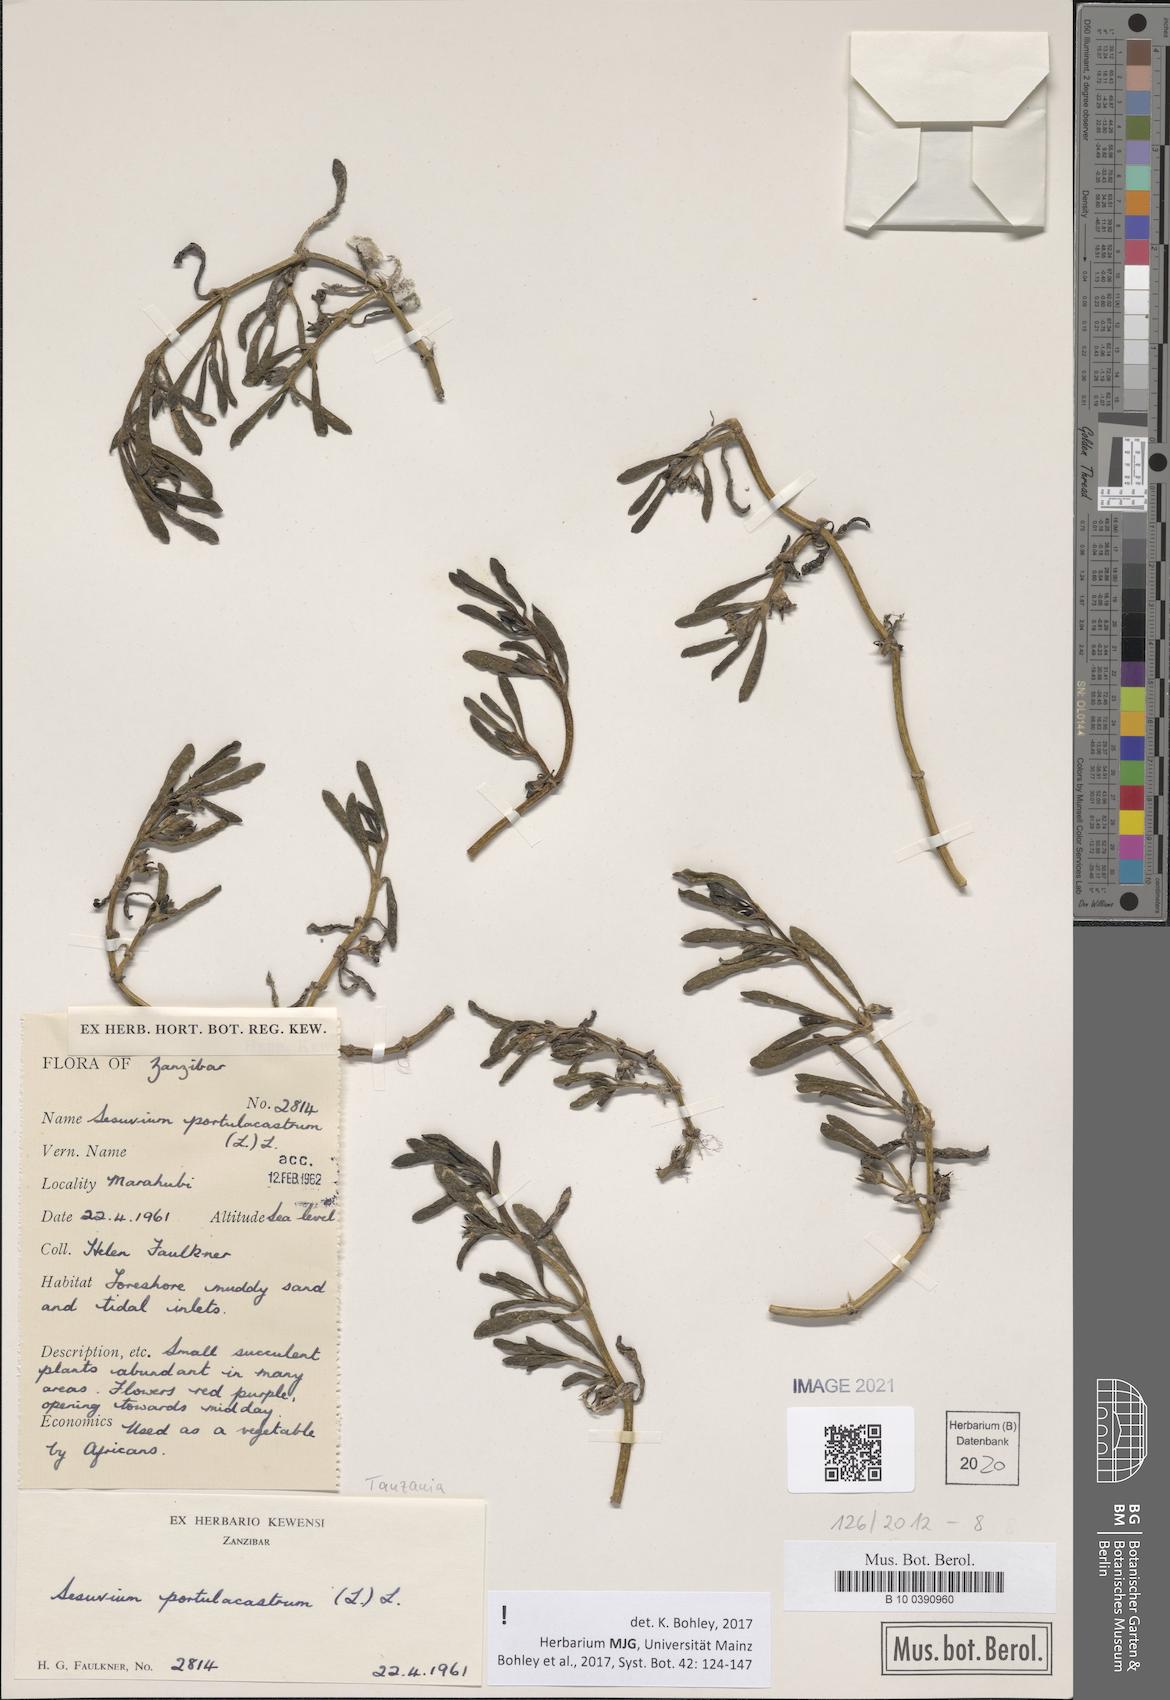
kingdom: Plantae
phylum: Tracheophyta
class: Magnoliopsida
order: Caryophyllales
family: Aizoaceae
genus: Sesuvium
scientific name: Sesuvium portulacastrum
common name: Sea-purslane
